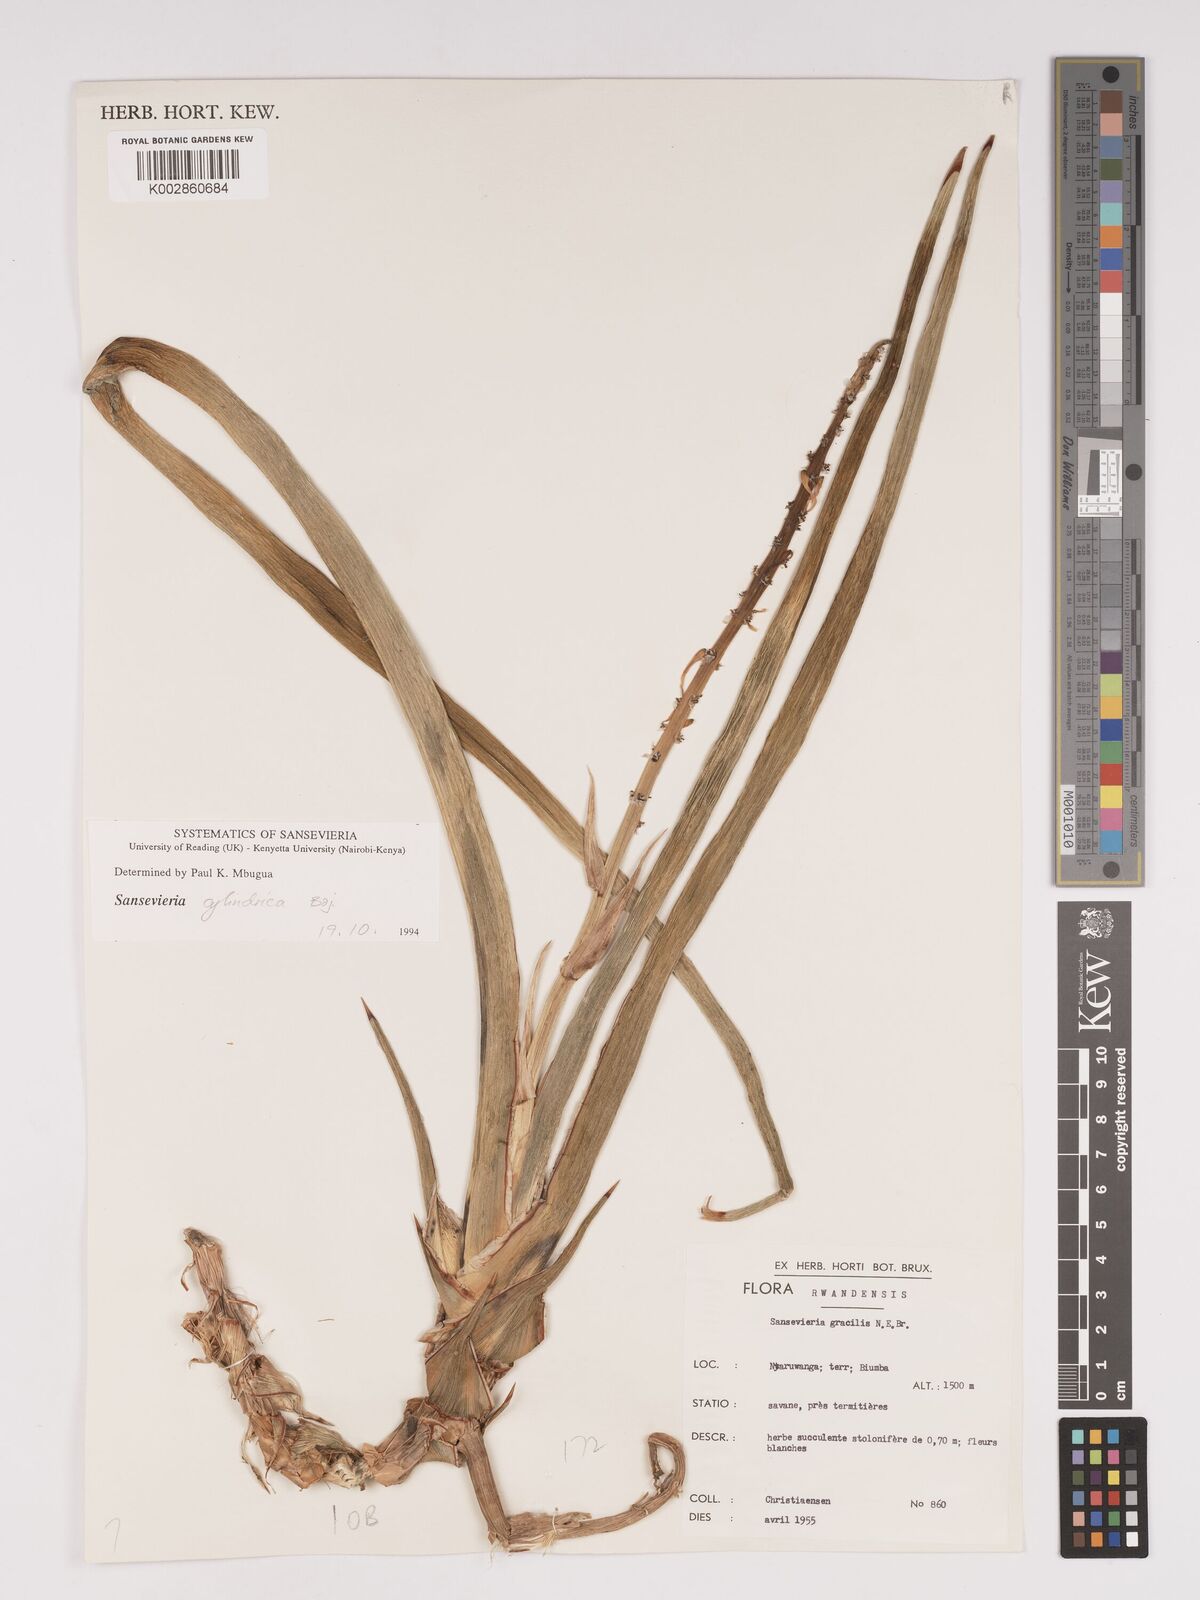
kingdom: Plantae
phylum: Tracheophyta
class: Liliopsida
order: Asparagales
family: Asparagaceae
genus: Dracaena
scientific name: Dracaena
